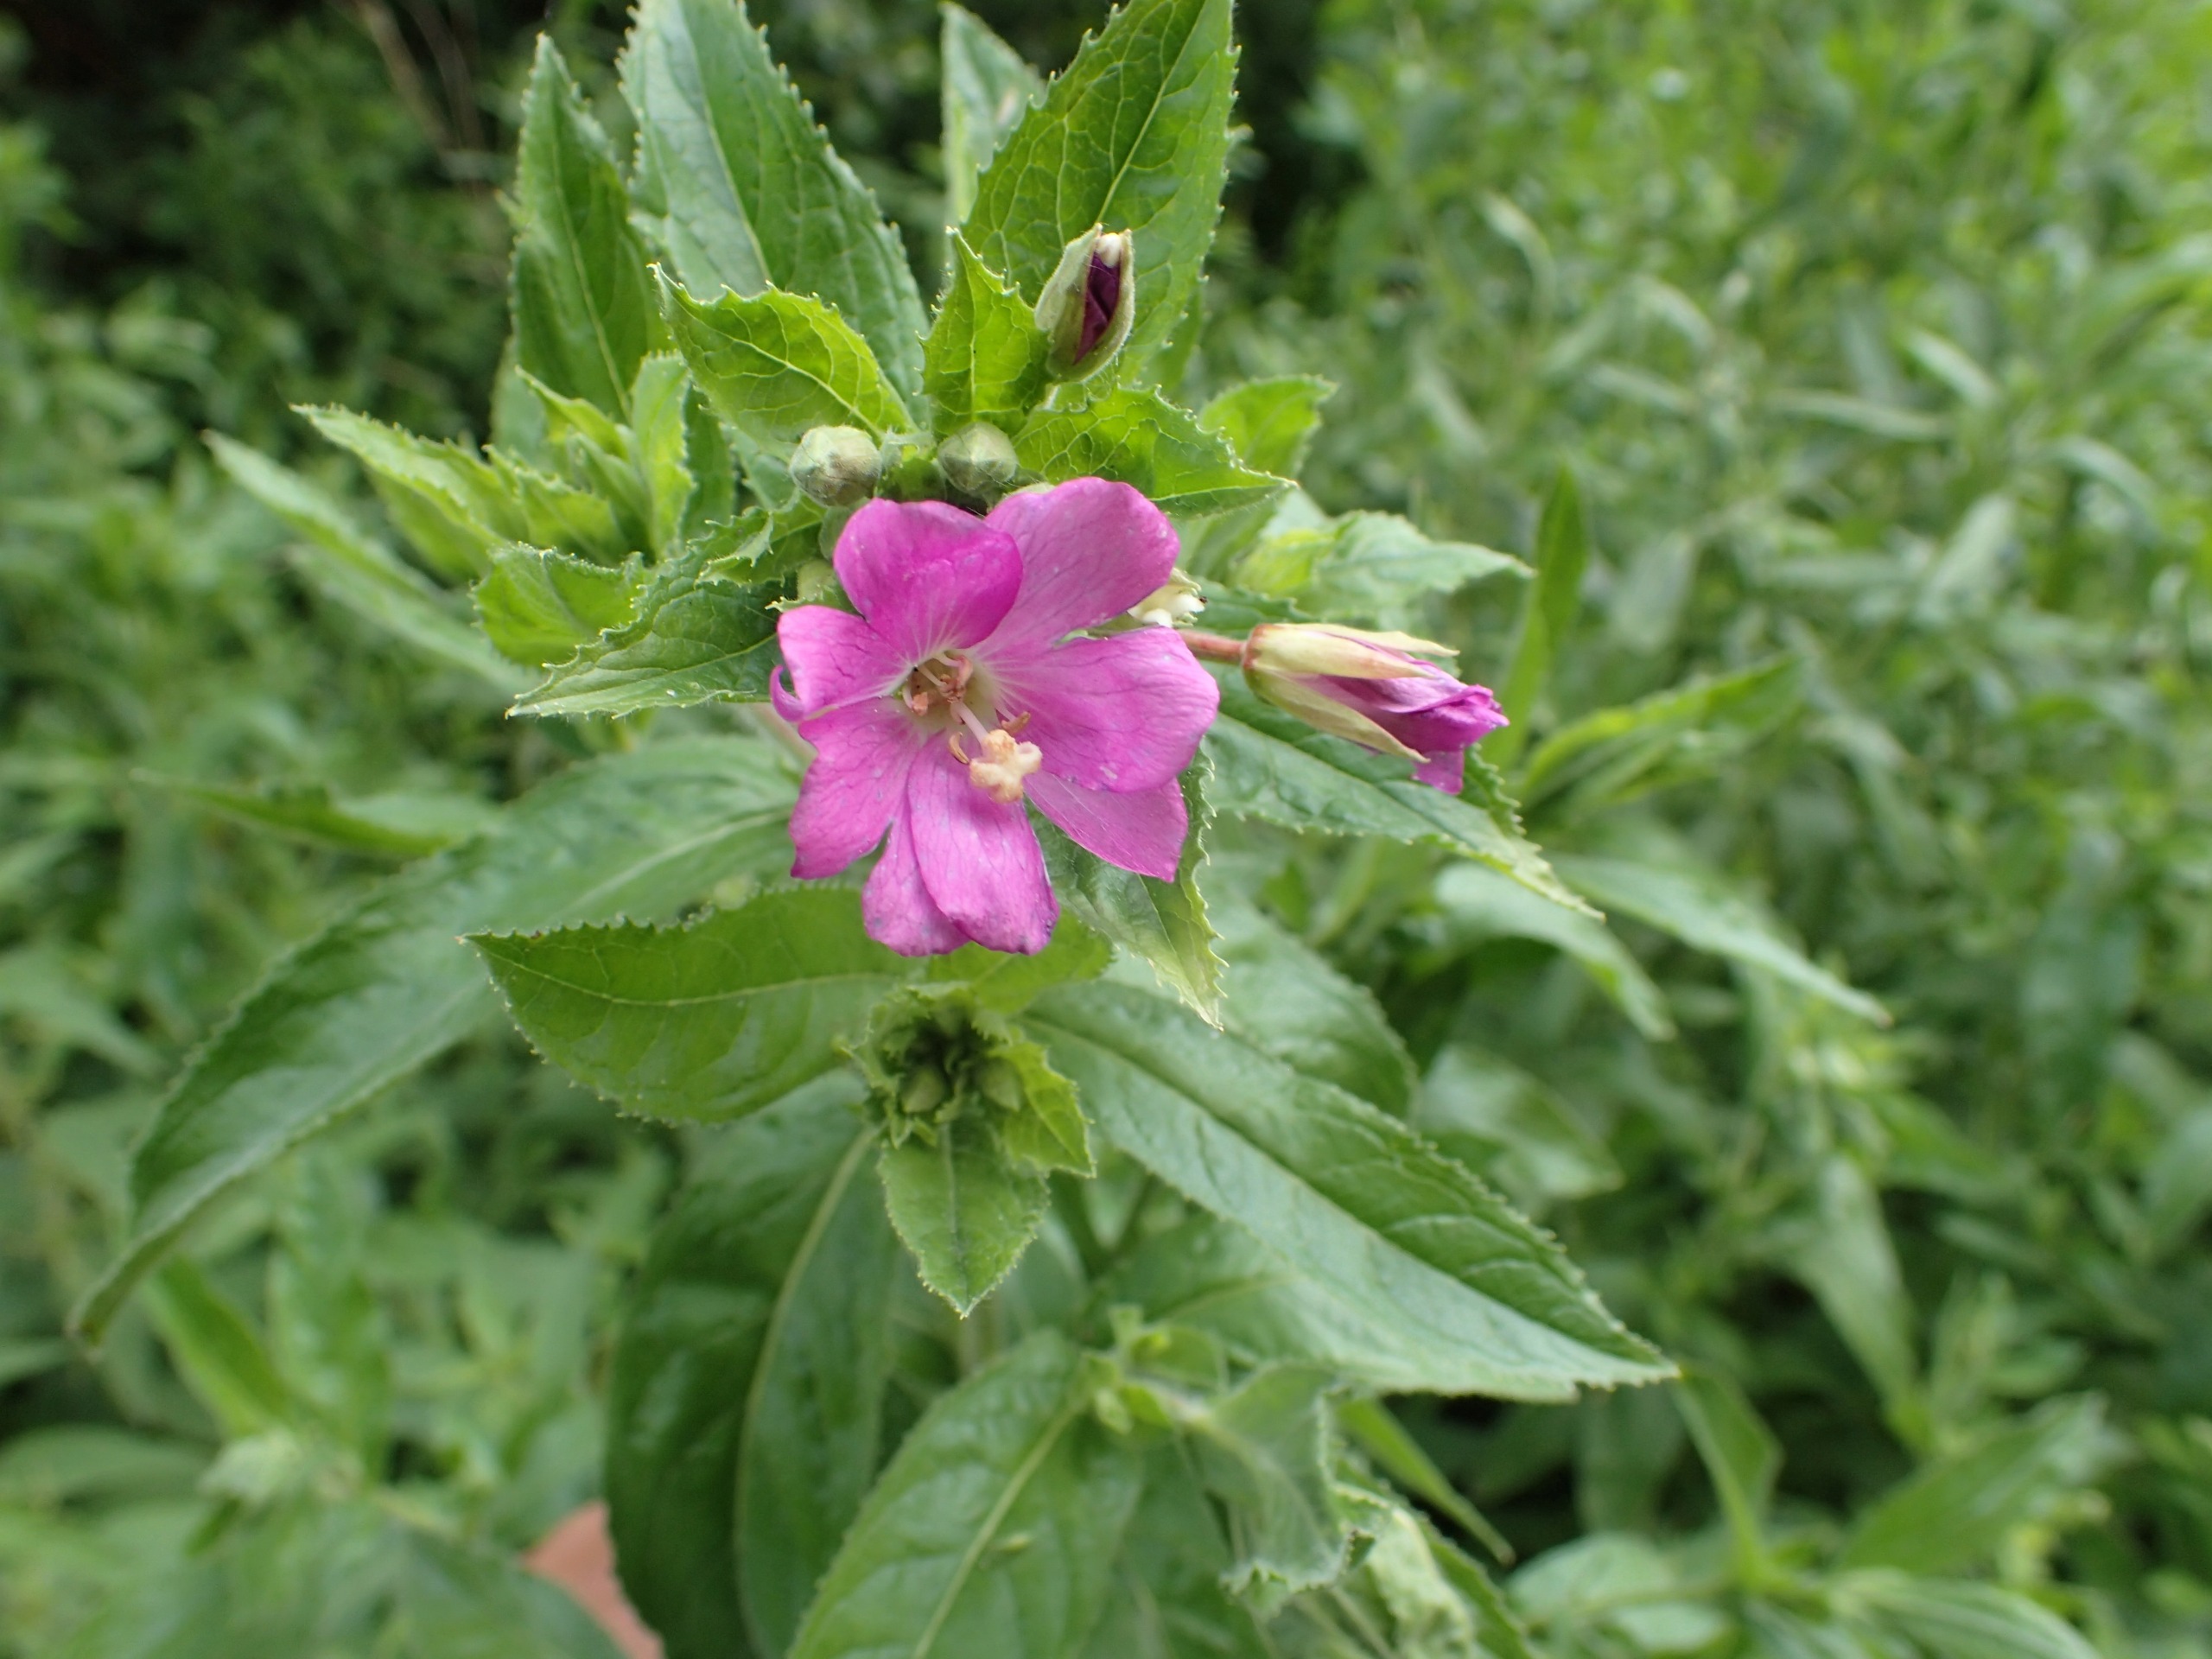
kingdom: Plantae
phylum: Tracheophyta
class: Magnoliopsida
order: Myrtales
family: Onagraceae
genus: Epilobium
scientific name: Epilobium hirsutum
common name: Lådden dueurt
